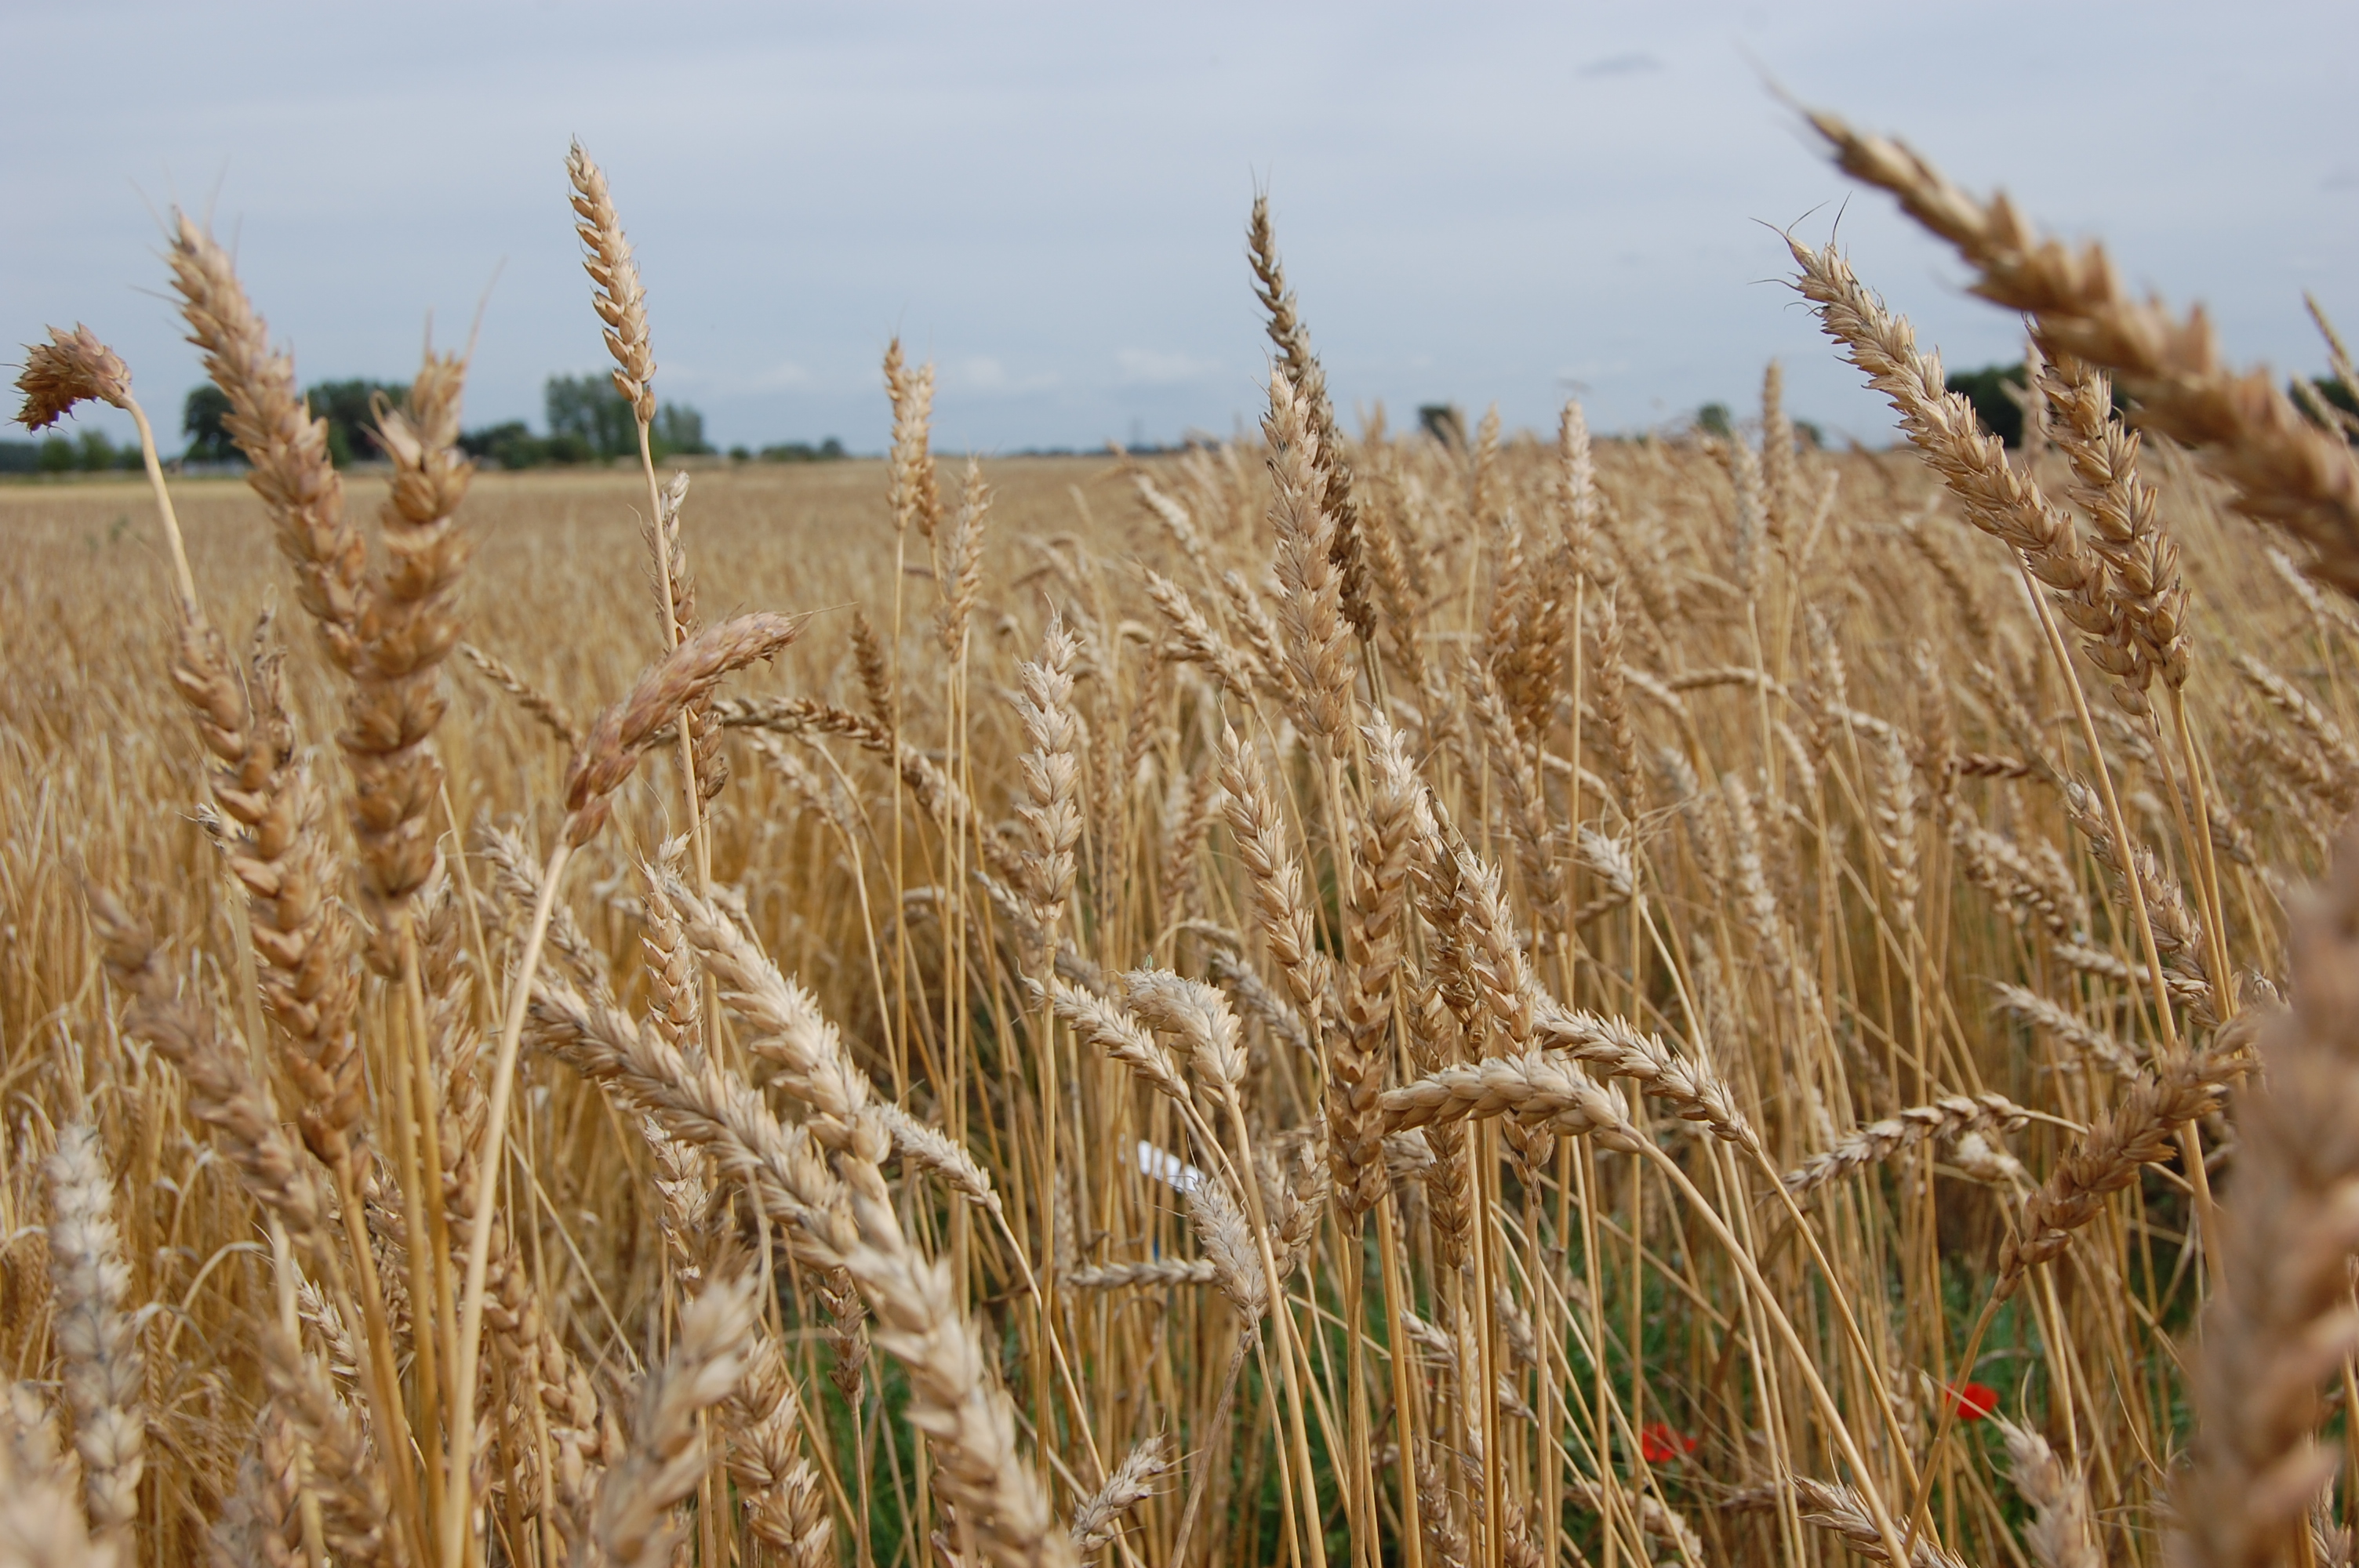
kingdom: Plantae
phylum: Tracheophyta
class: Liliopsida
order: Poales
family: Poaceae
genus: Triticum
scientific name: Triticum aestivum
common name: Common wheat
